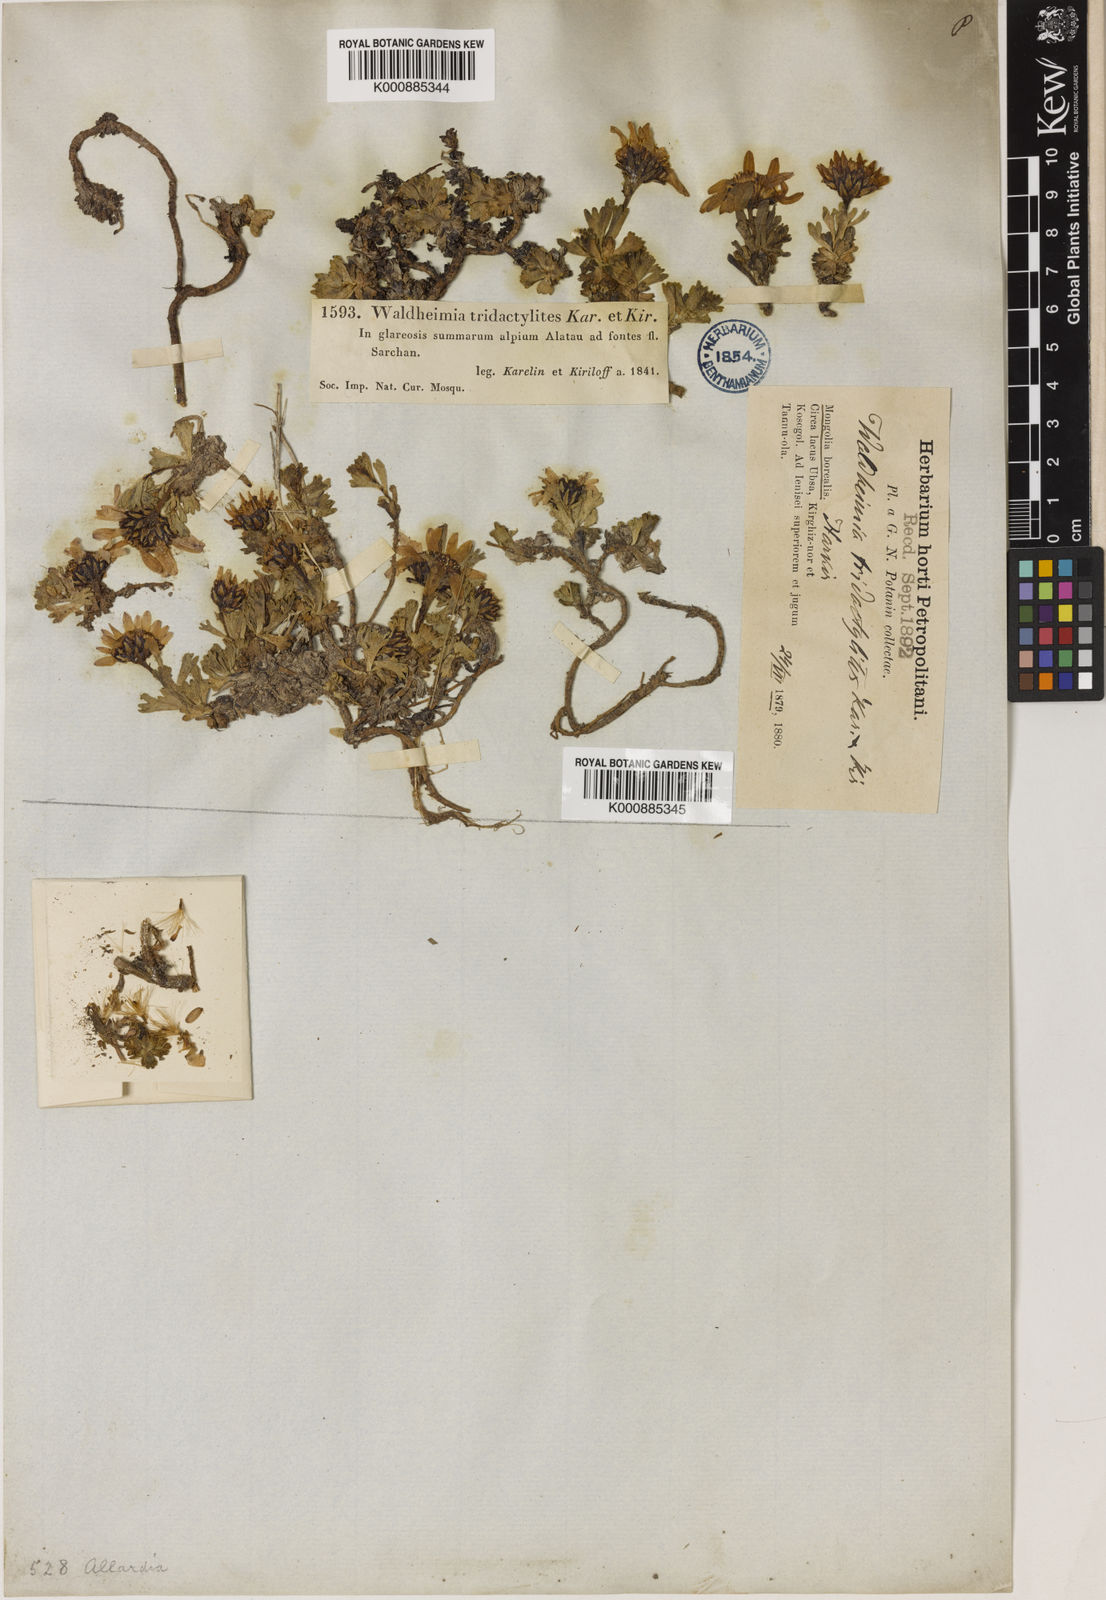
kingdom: Plantae
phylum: Tracheophyta
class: Magnoliopsida
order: Asterales
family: Asteraceae
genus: Allardia
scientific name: Allardia tridactylites
